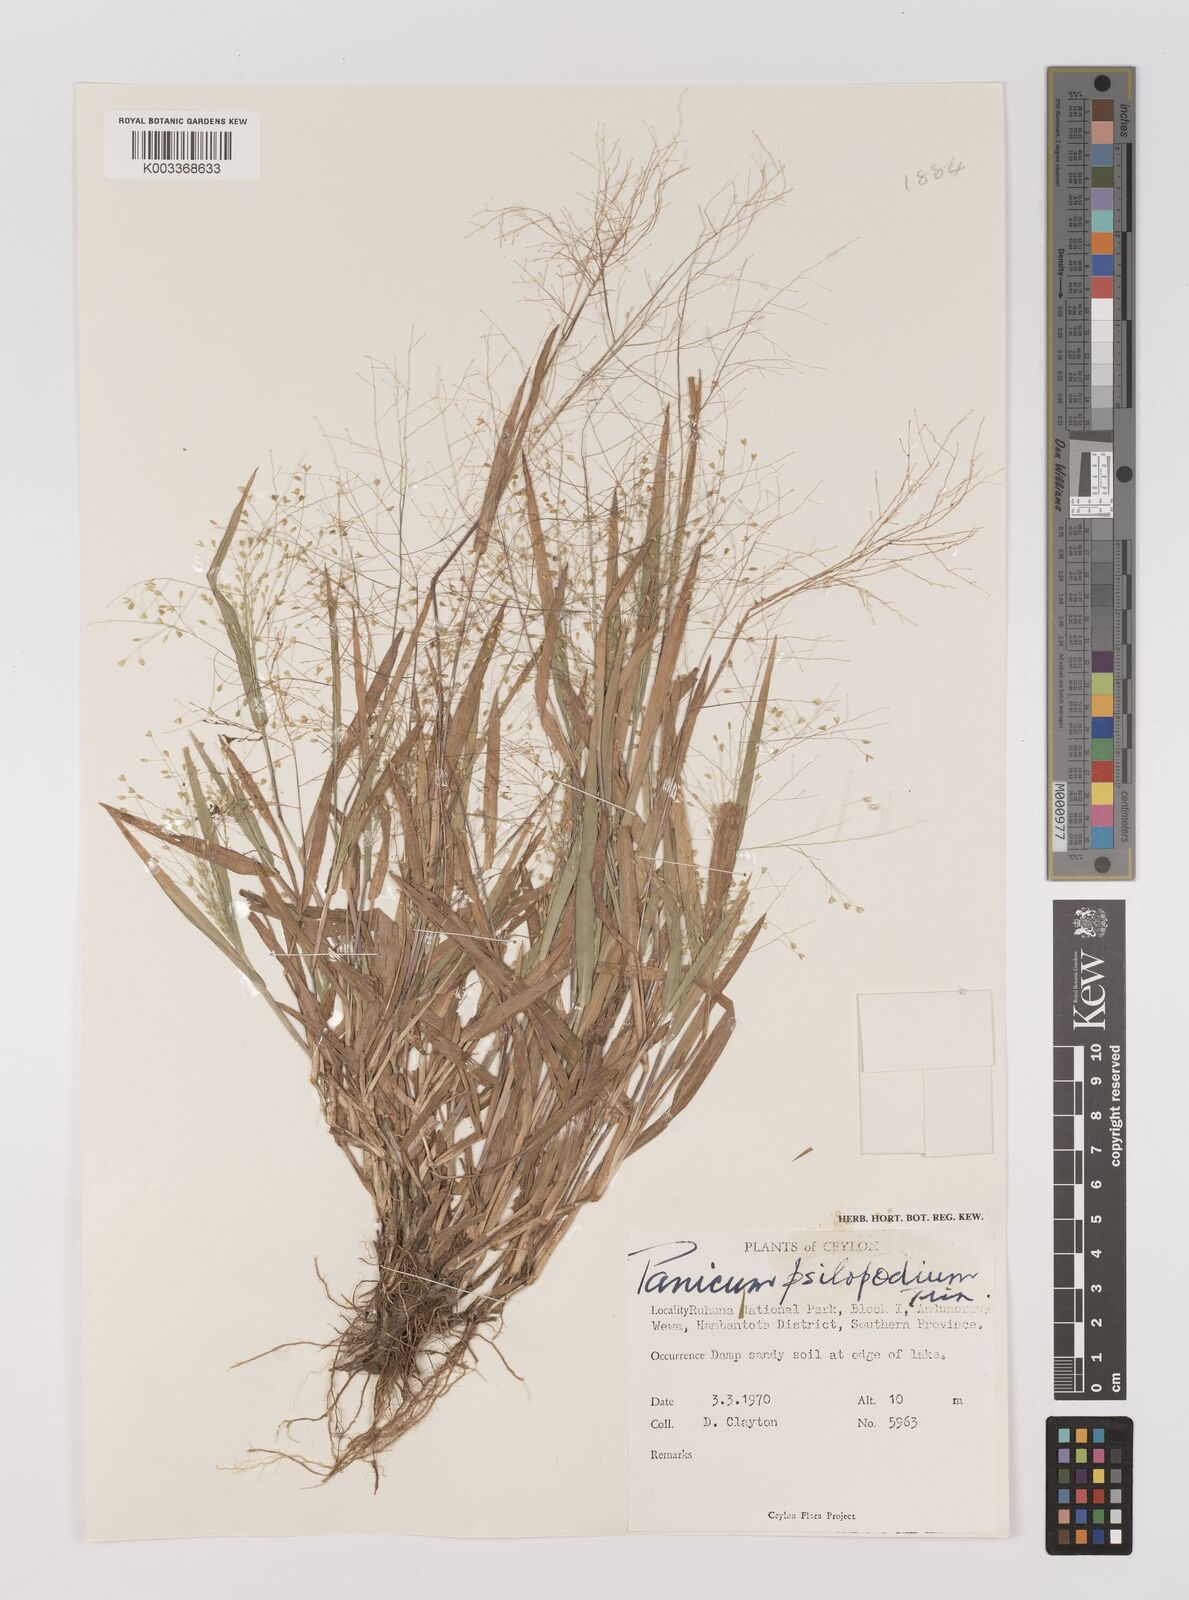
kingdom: Plantae
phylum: Tracheophyta
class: Liliopsida
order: Poales
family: Poaceae
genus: Panicum
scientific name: Panicum sumatrense
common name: Little millet
